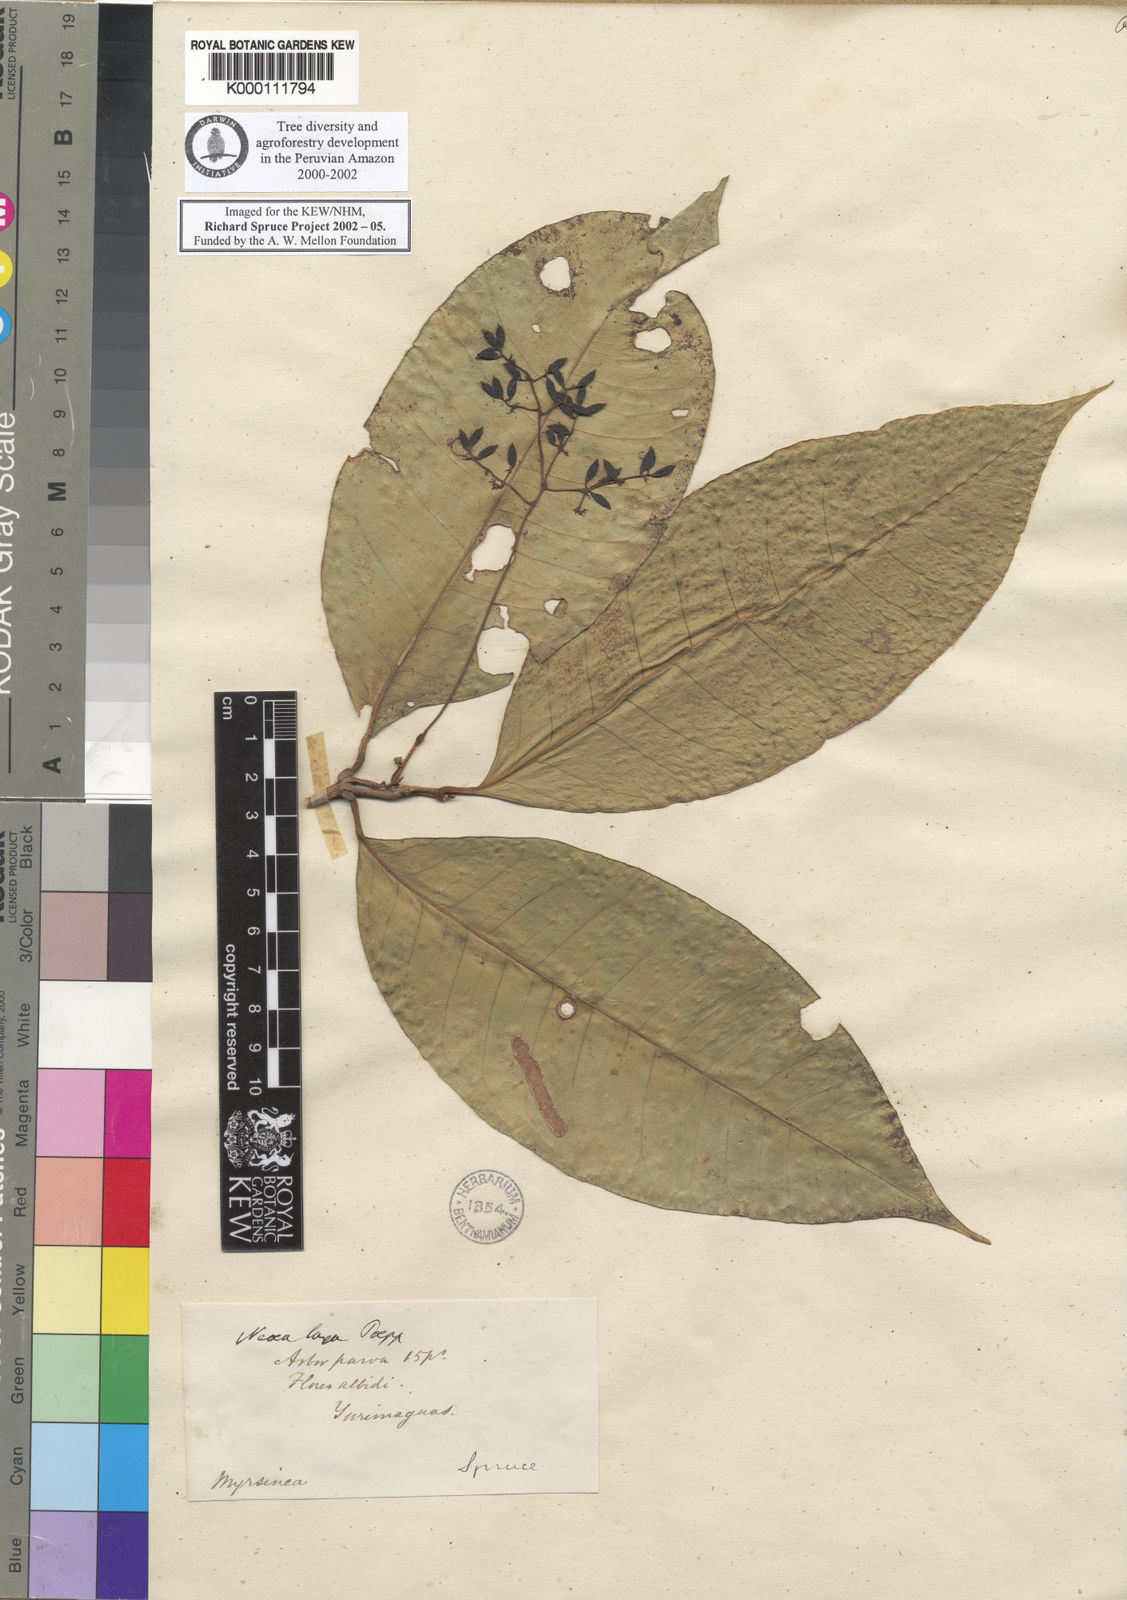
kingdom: Plantae
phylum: Tracheophyta
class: Magnoliopsida
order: Caryophyllales
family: Nyctaginaceae
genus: Neea
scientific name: Neea laxa
